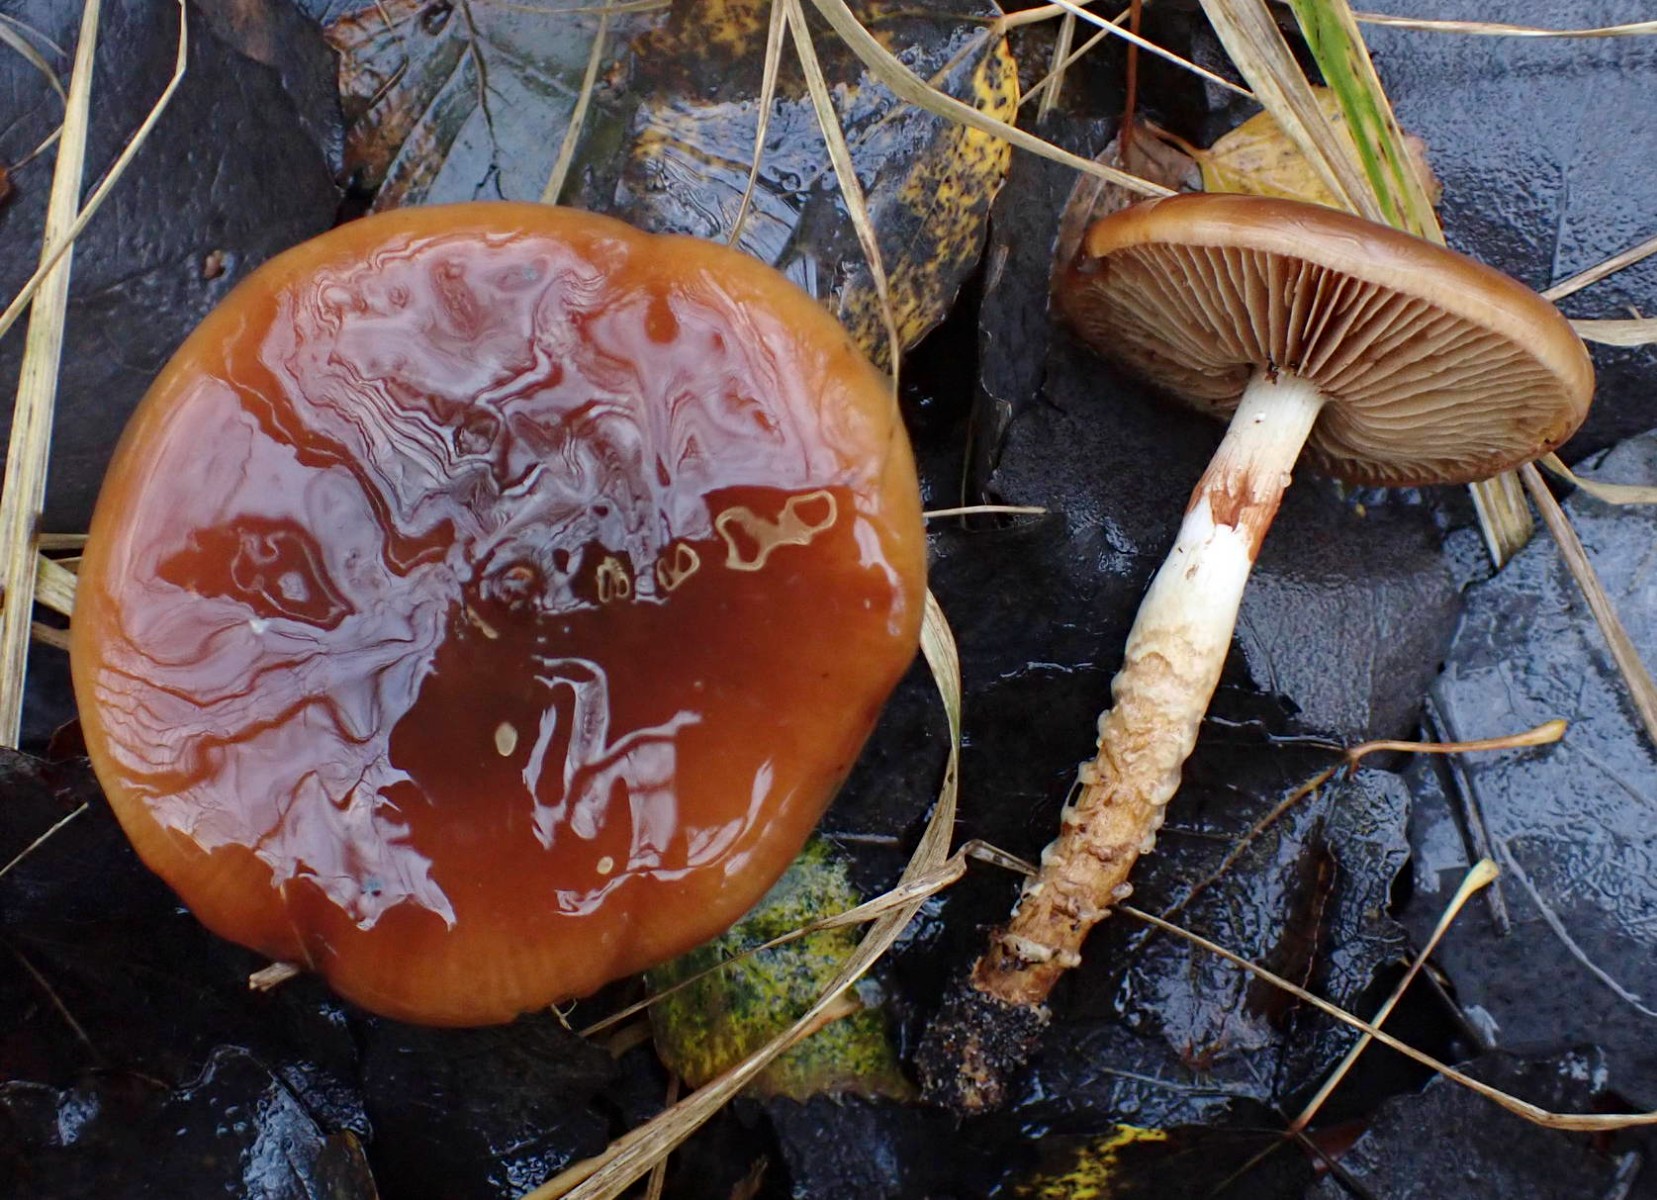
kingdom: Fungi
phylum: Basidiomycota
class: Agaricomycetes
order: Agaricales
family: Cortinariaceae
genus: Cortinarius
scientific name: Cortinarius trivialis
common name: brunslimet slørhat
